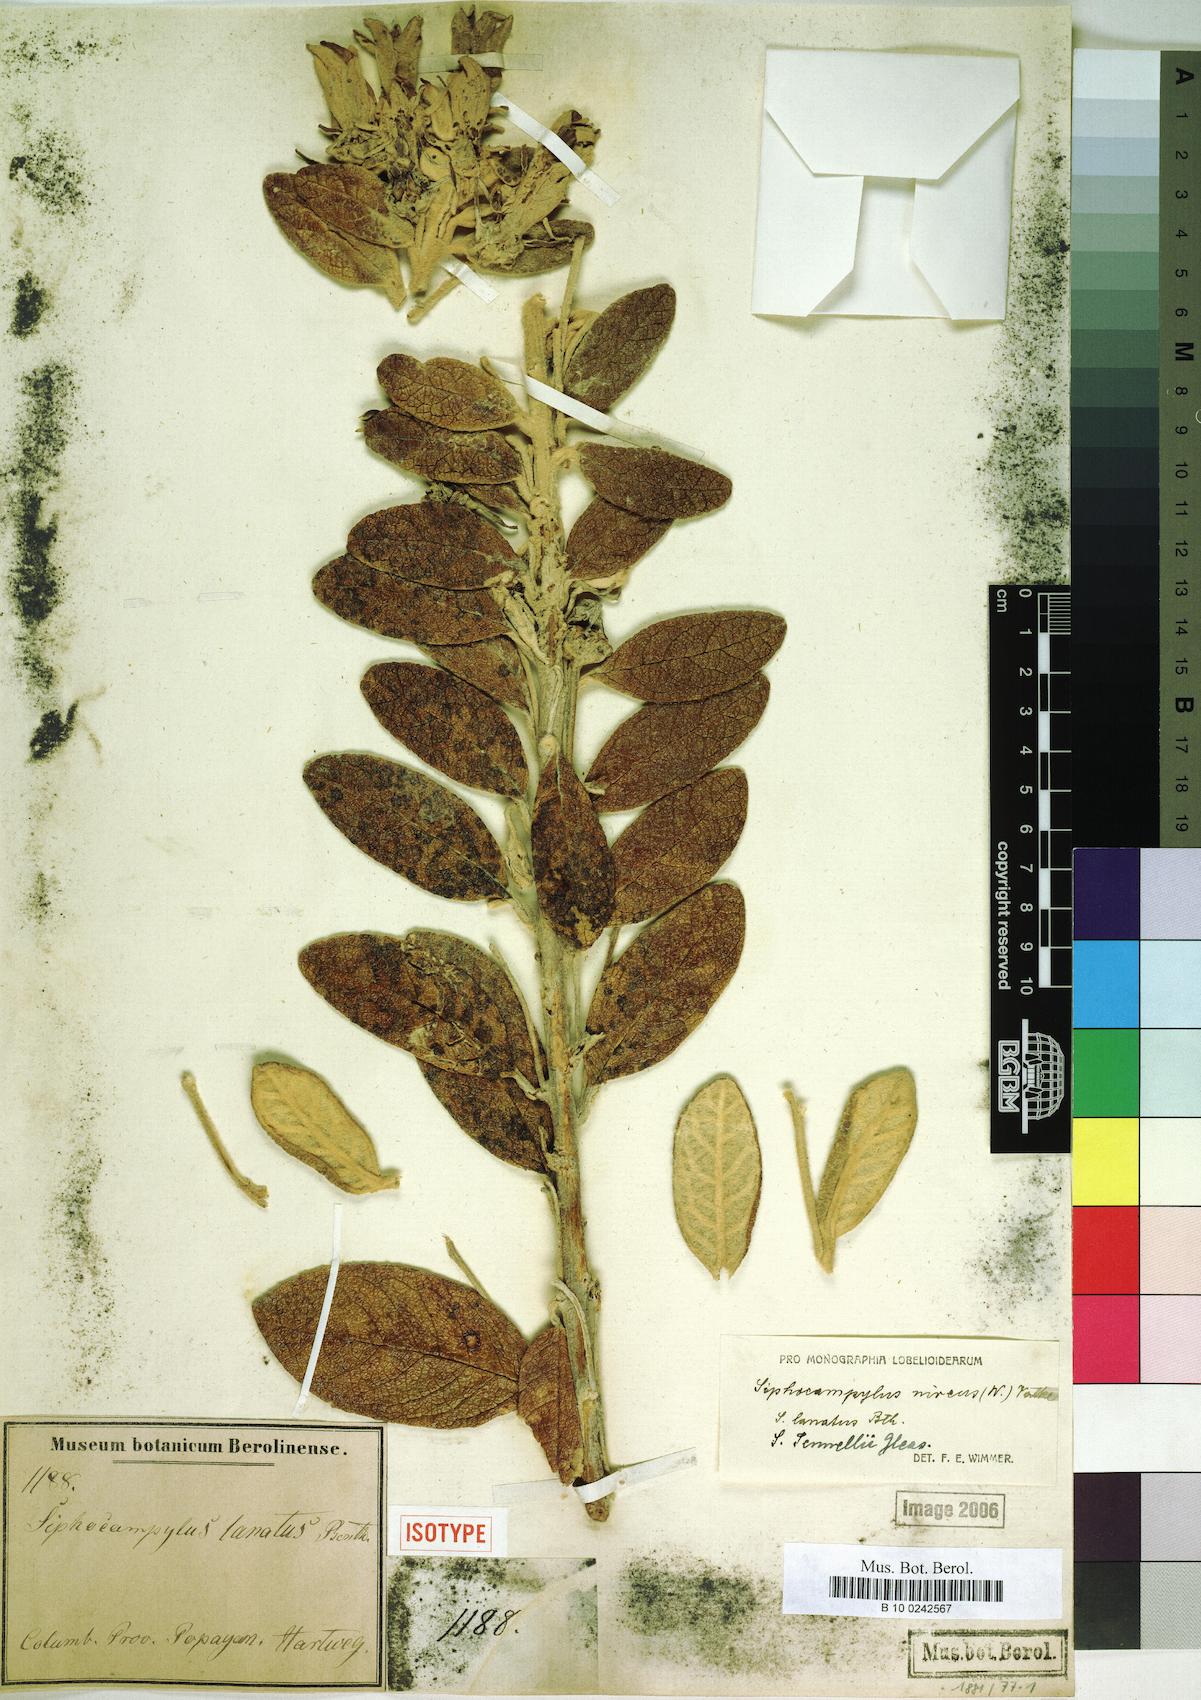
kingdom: Plantae
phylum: Tracheophyta
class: Magnoliopsida
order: Asterales
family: Campanulaceae
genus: Siphocampylus
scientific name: Siphocampylus niveus
